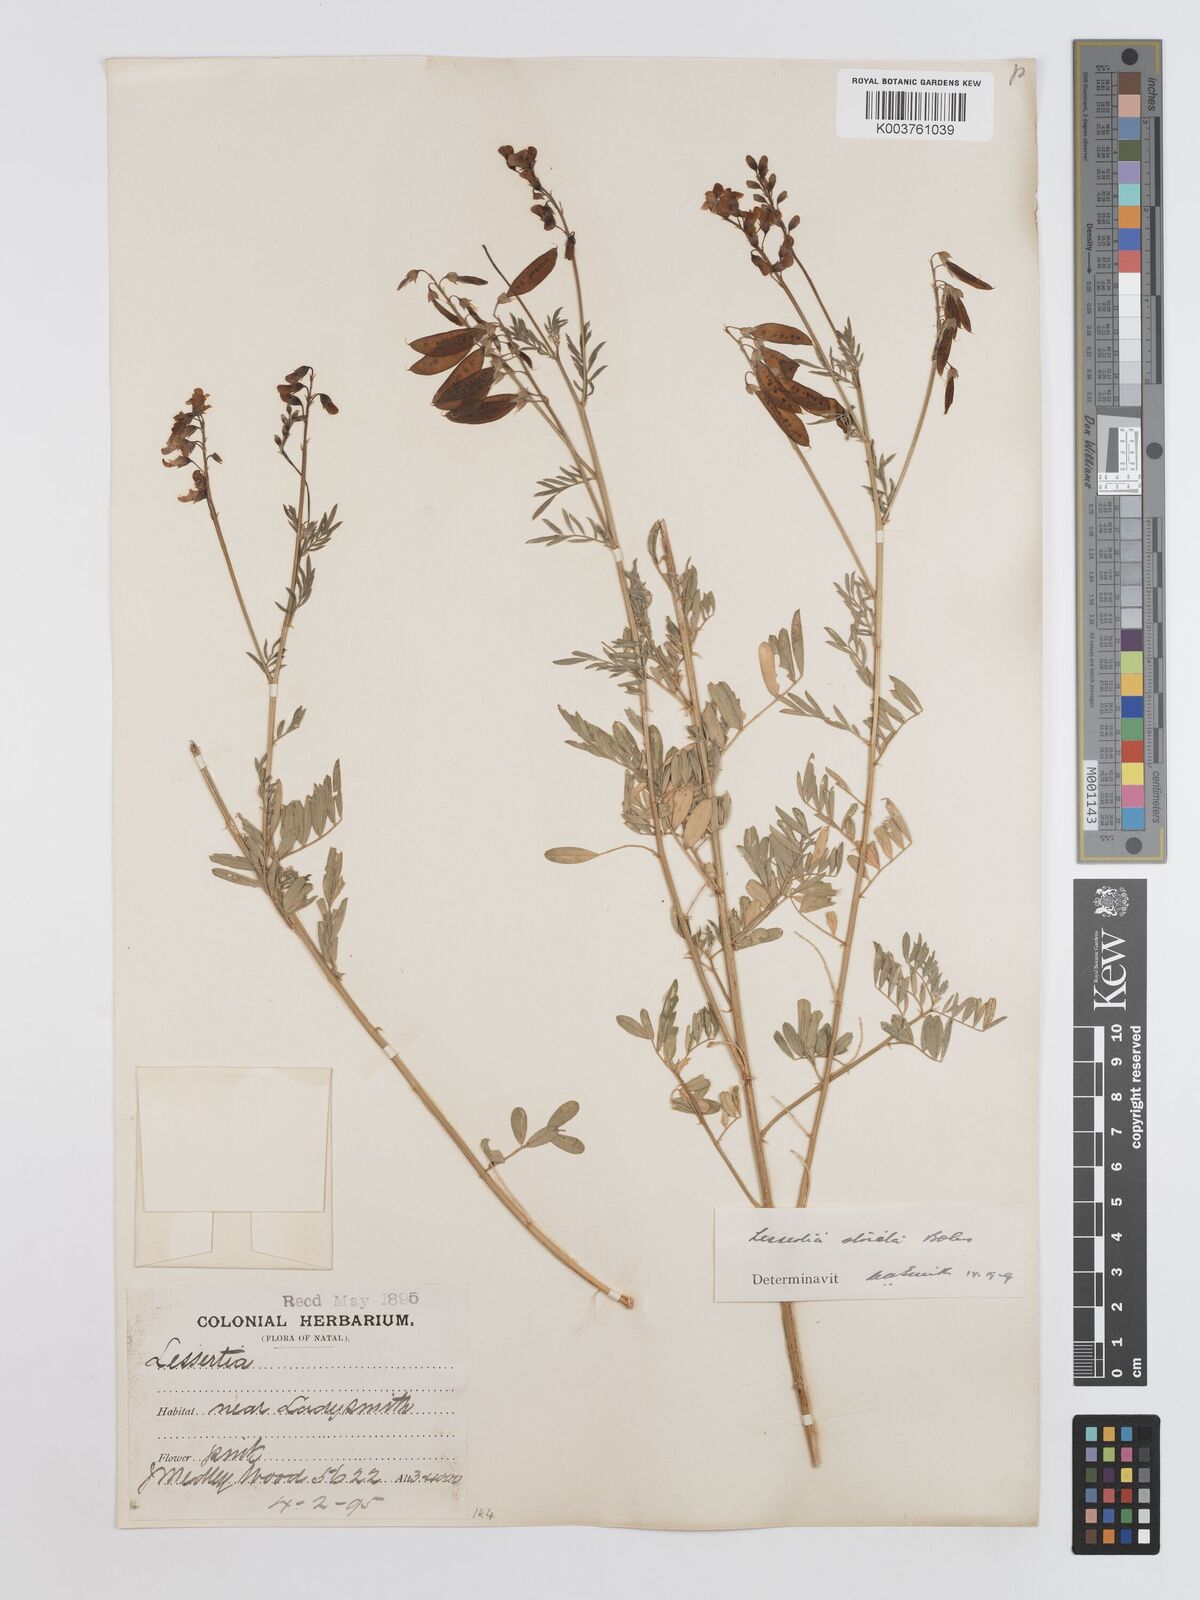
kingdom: Plantae
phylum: Tracheophyta
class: Magnoliopsida
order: Fabales
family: Fabaceae
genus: Lessertia
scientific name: Lessertia stricta
